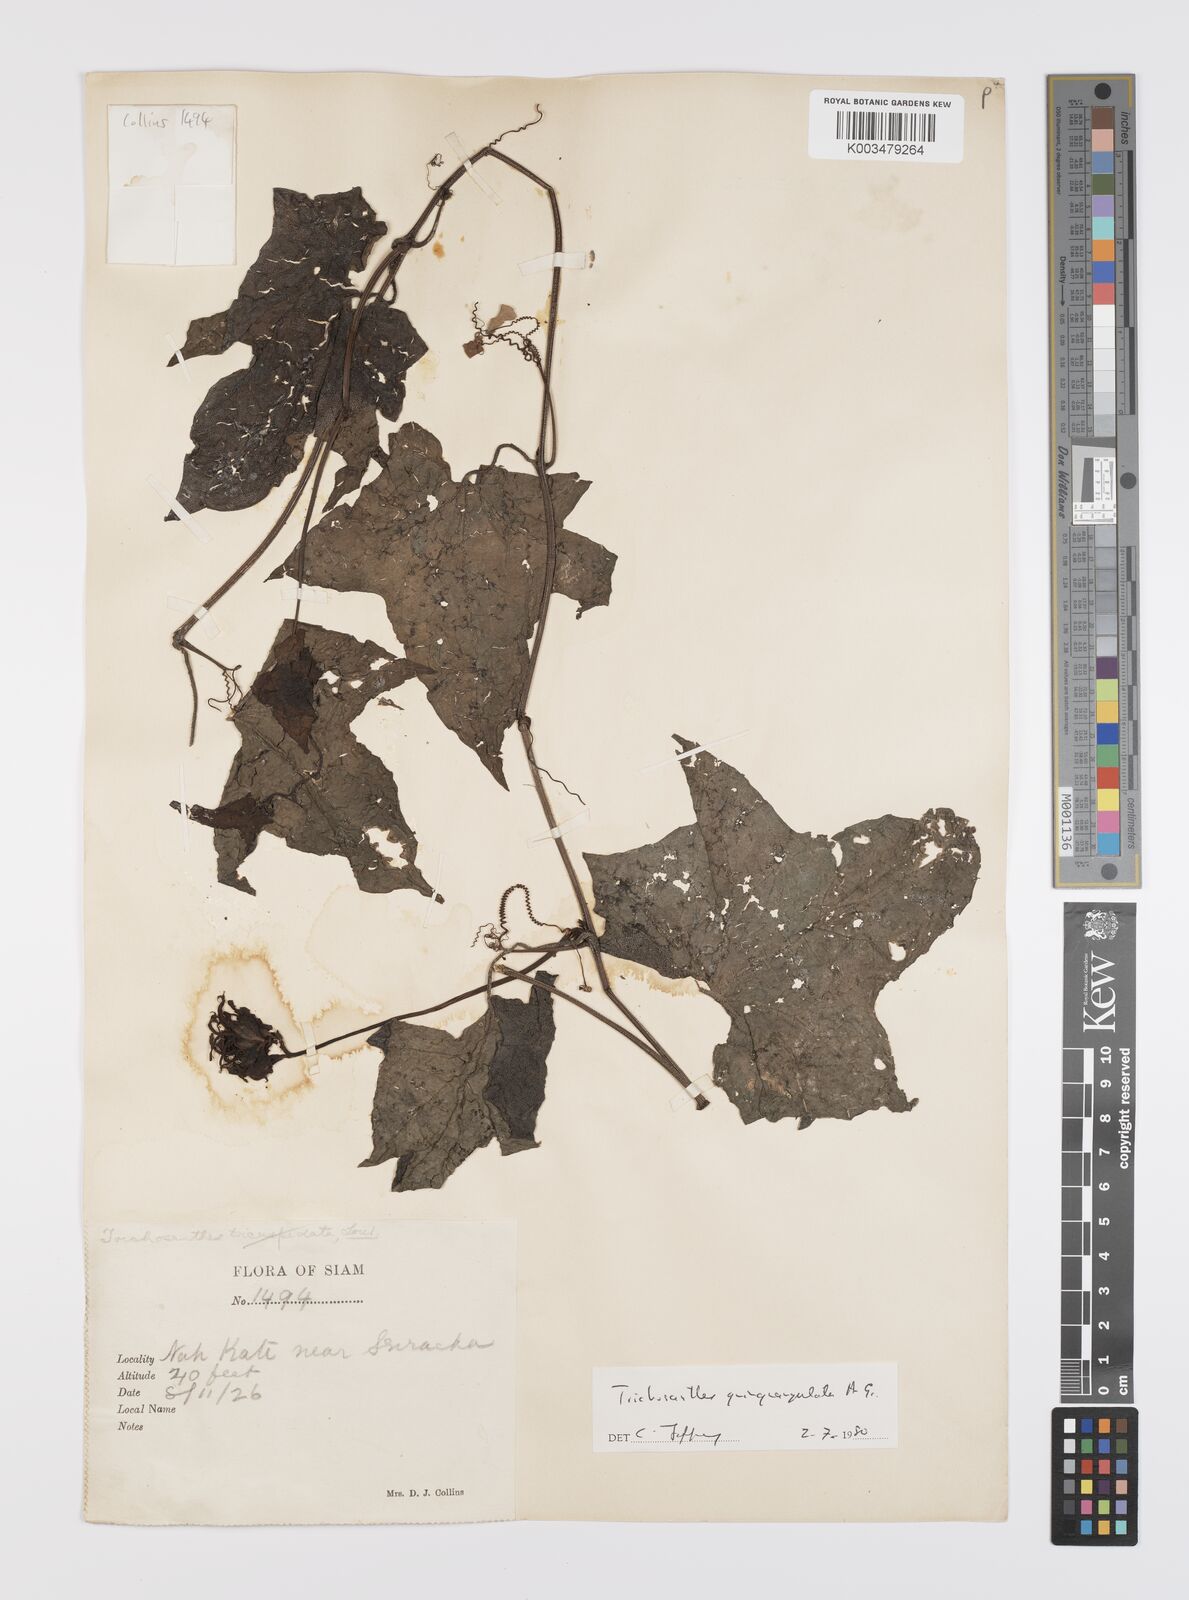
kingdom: Plantae
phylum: Tracheophyta
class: Magnoliopsida
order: Cucurbitales
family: Cucurbitaceae
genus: Trichosanthes
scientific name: Trichosanthes quinquangulata
